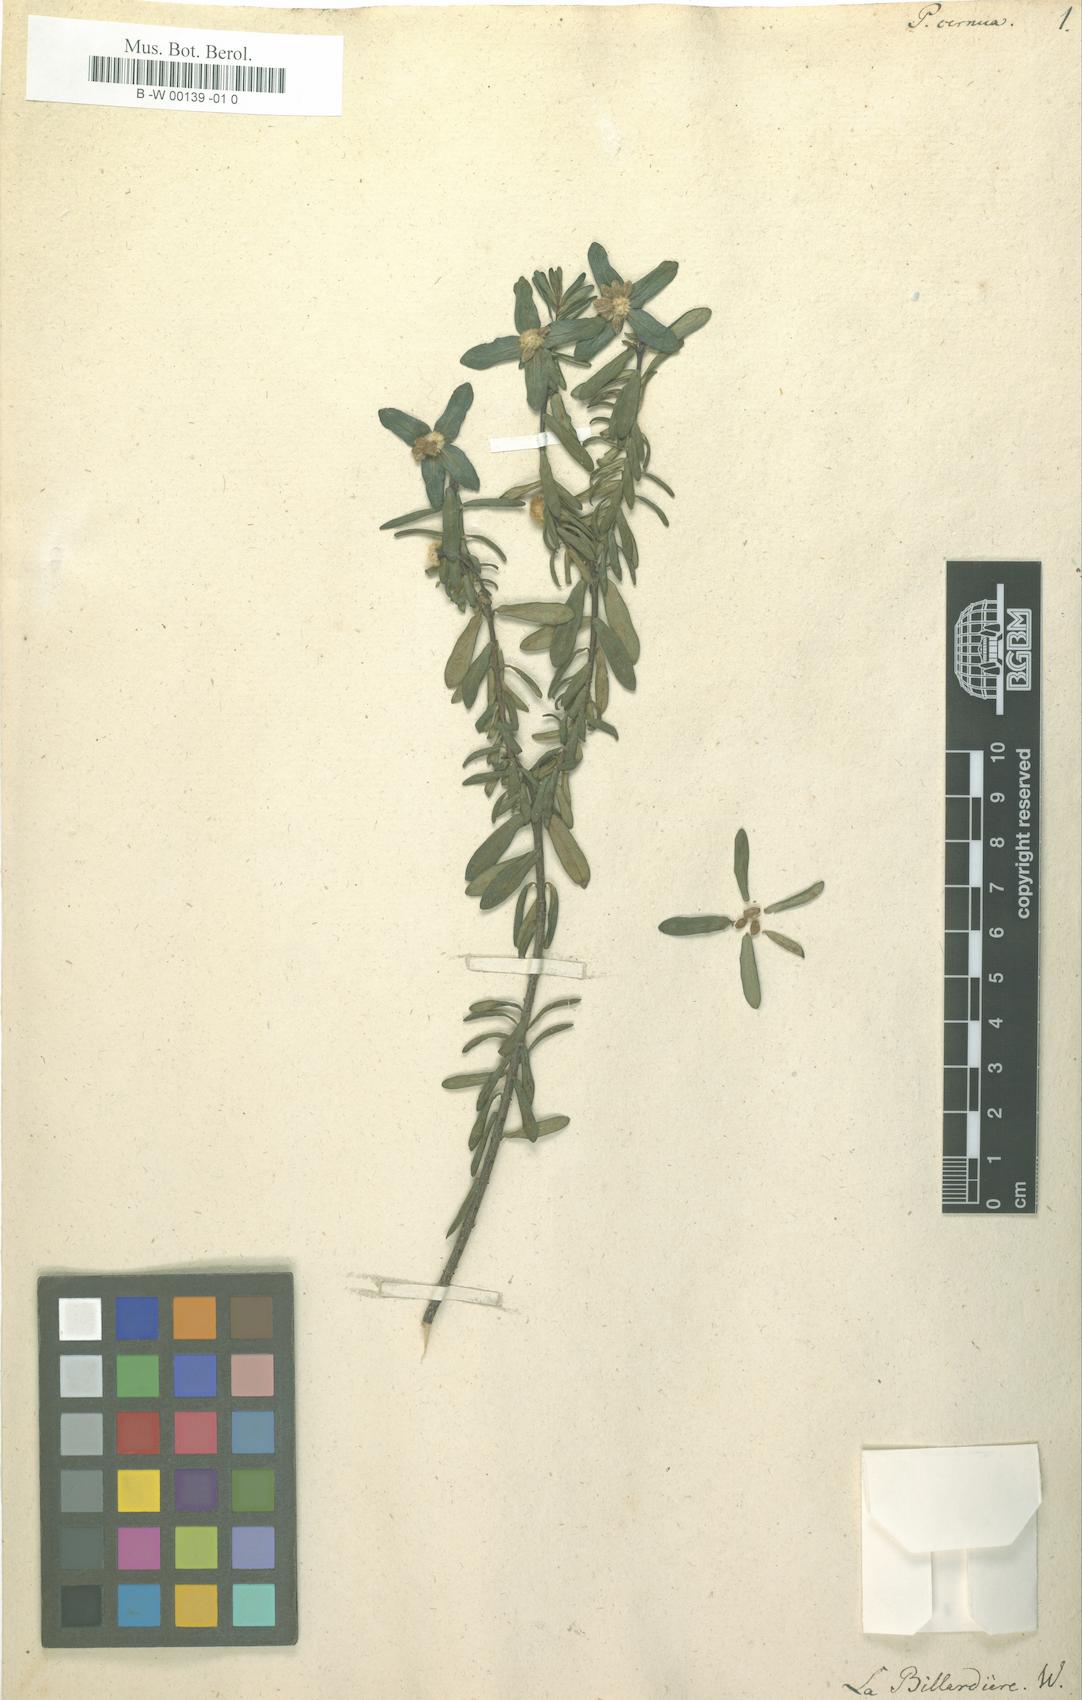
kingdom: Plantae
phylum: Tracheophyta
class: Magnoliopsida
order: Malvales
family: Thymelaeaceae
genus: Pimelea
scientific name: Pimelea linifolia
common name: Queen-of-the-bush
